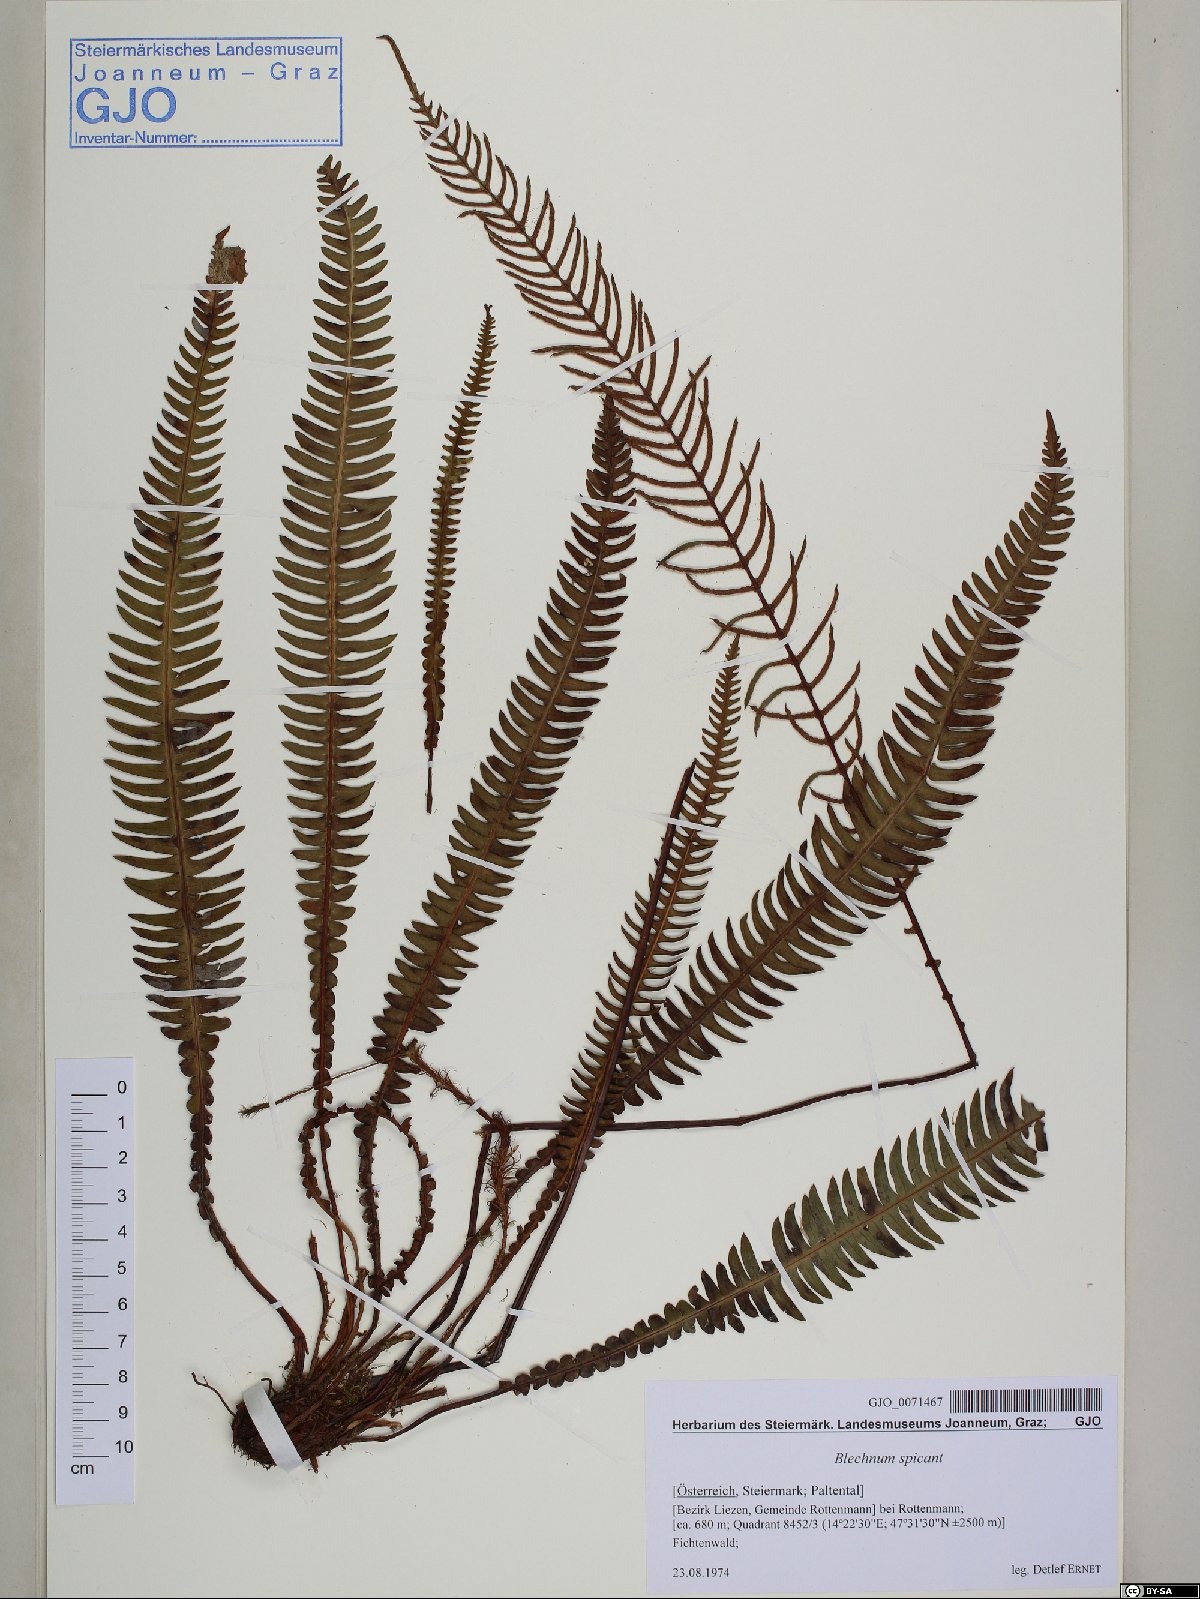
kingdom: Plantae
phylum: Tracheophyta
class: Polypodiopsida
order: Polypodiales
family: Blechnaceae
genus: Struthiopteris
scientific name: Struthiopteris spicant
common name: Deer fern
